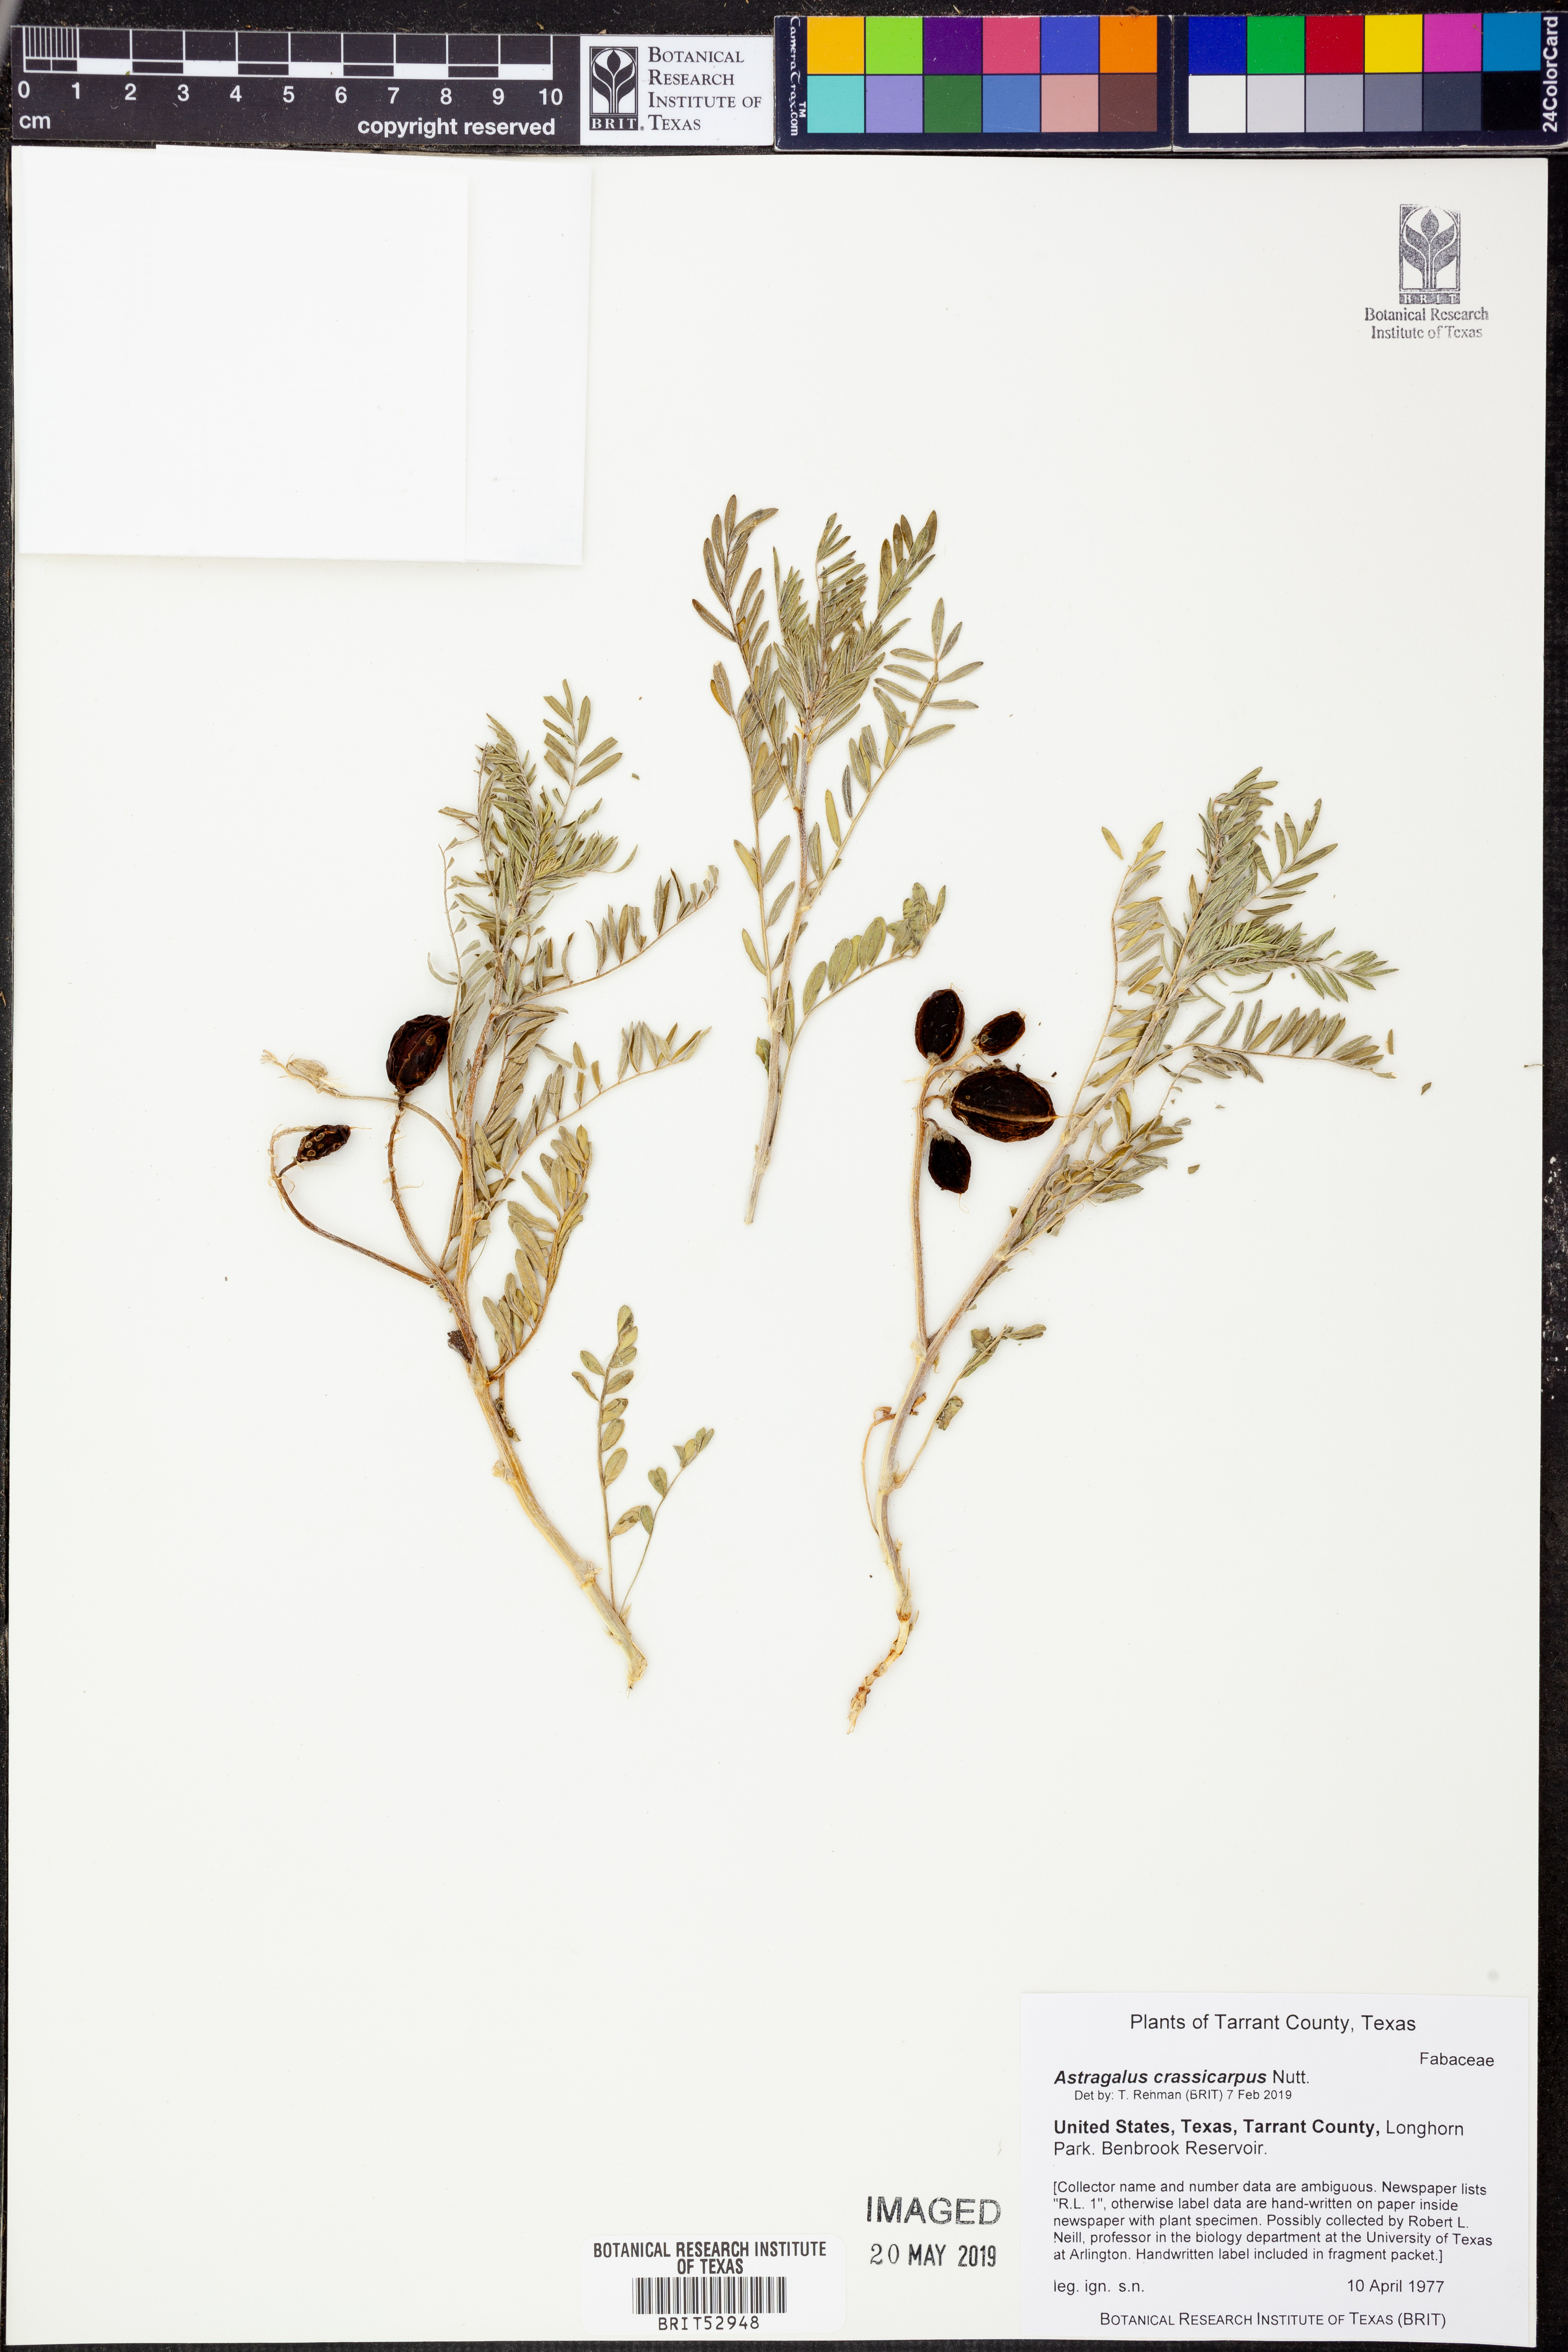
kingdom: Plantae
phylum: Tracheophyta
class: Magnoliopsida
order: Fabales
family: Fabaceae
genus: Astragalus
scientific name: Astragalus crassicarpus
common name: Ground-plum milk-vetch
